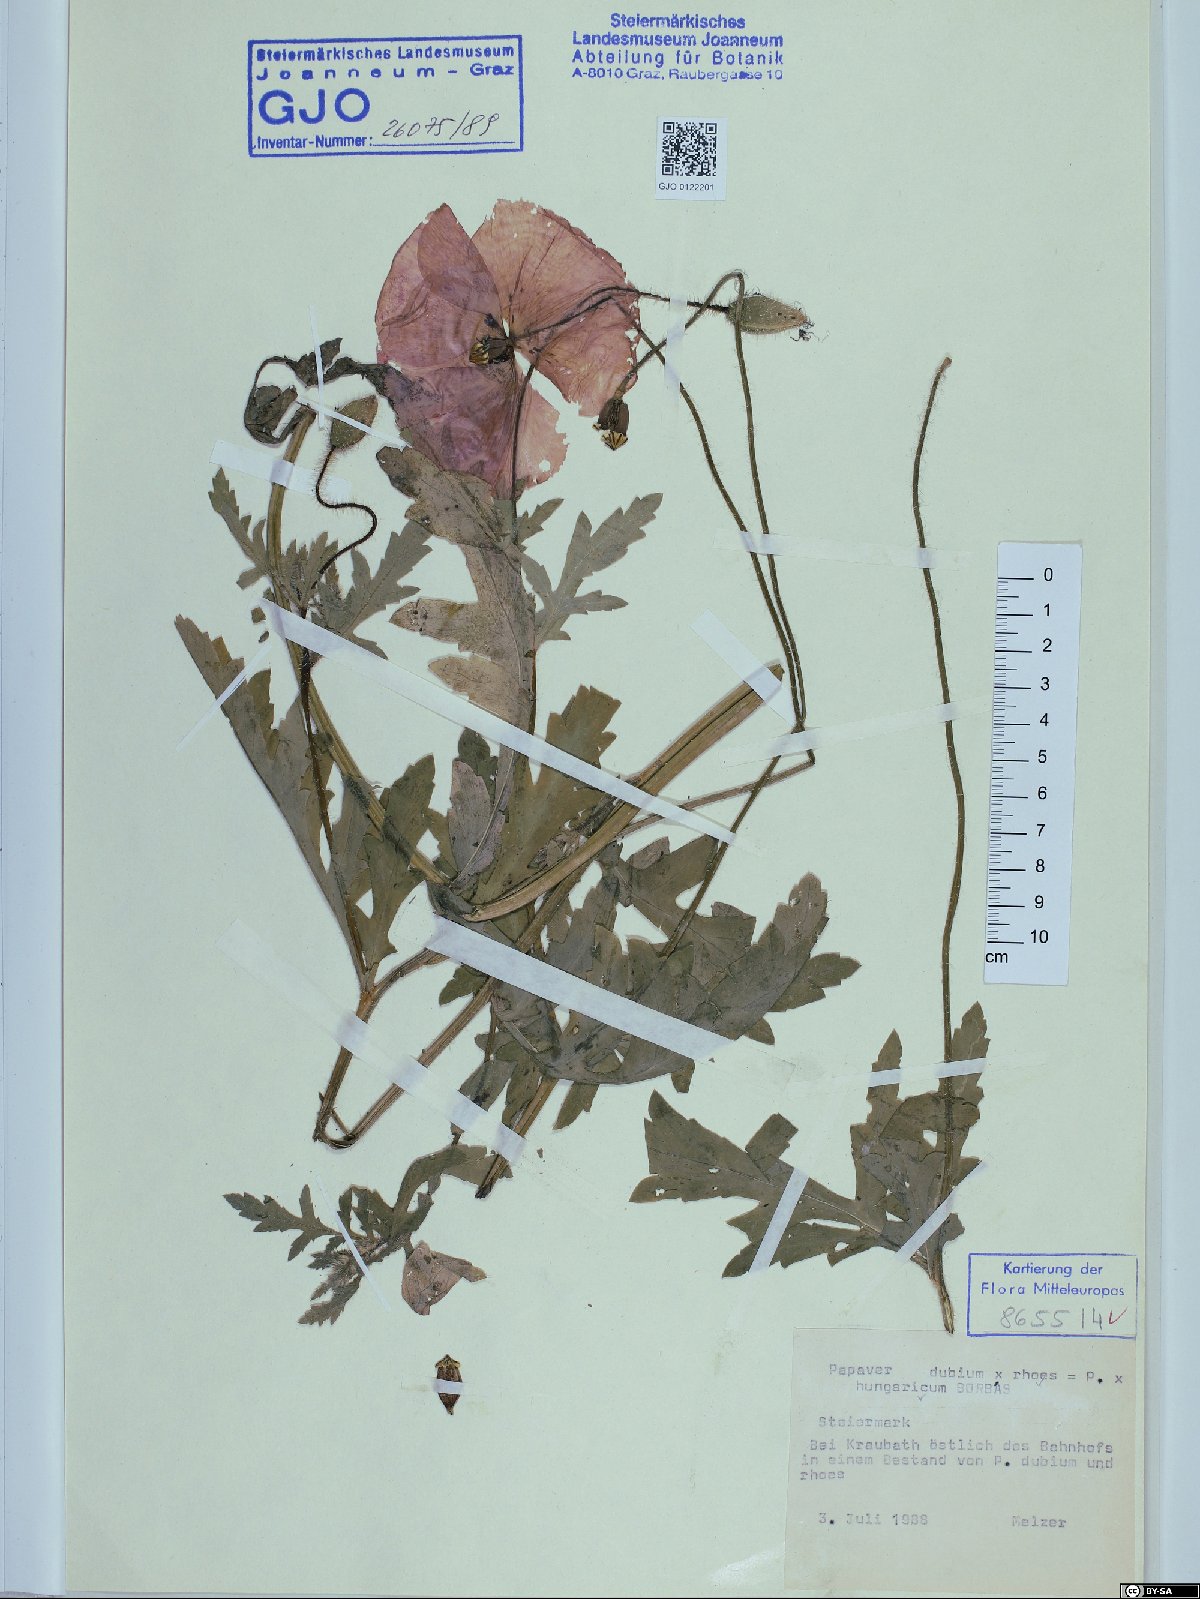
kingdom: Plantae
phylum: Tracheophyta
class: Magnoliopsida
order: Ranunculales
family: Papaveraceae
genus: Papaver
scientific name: Papaver strigosum
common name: Poppy
